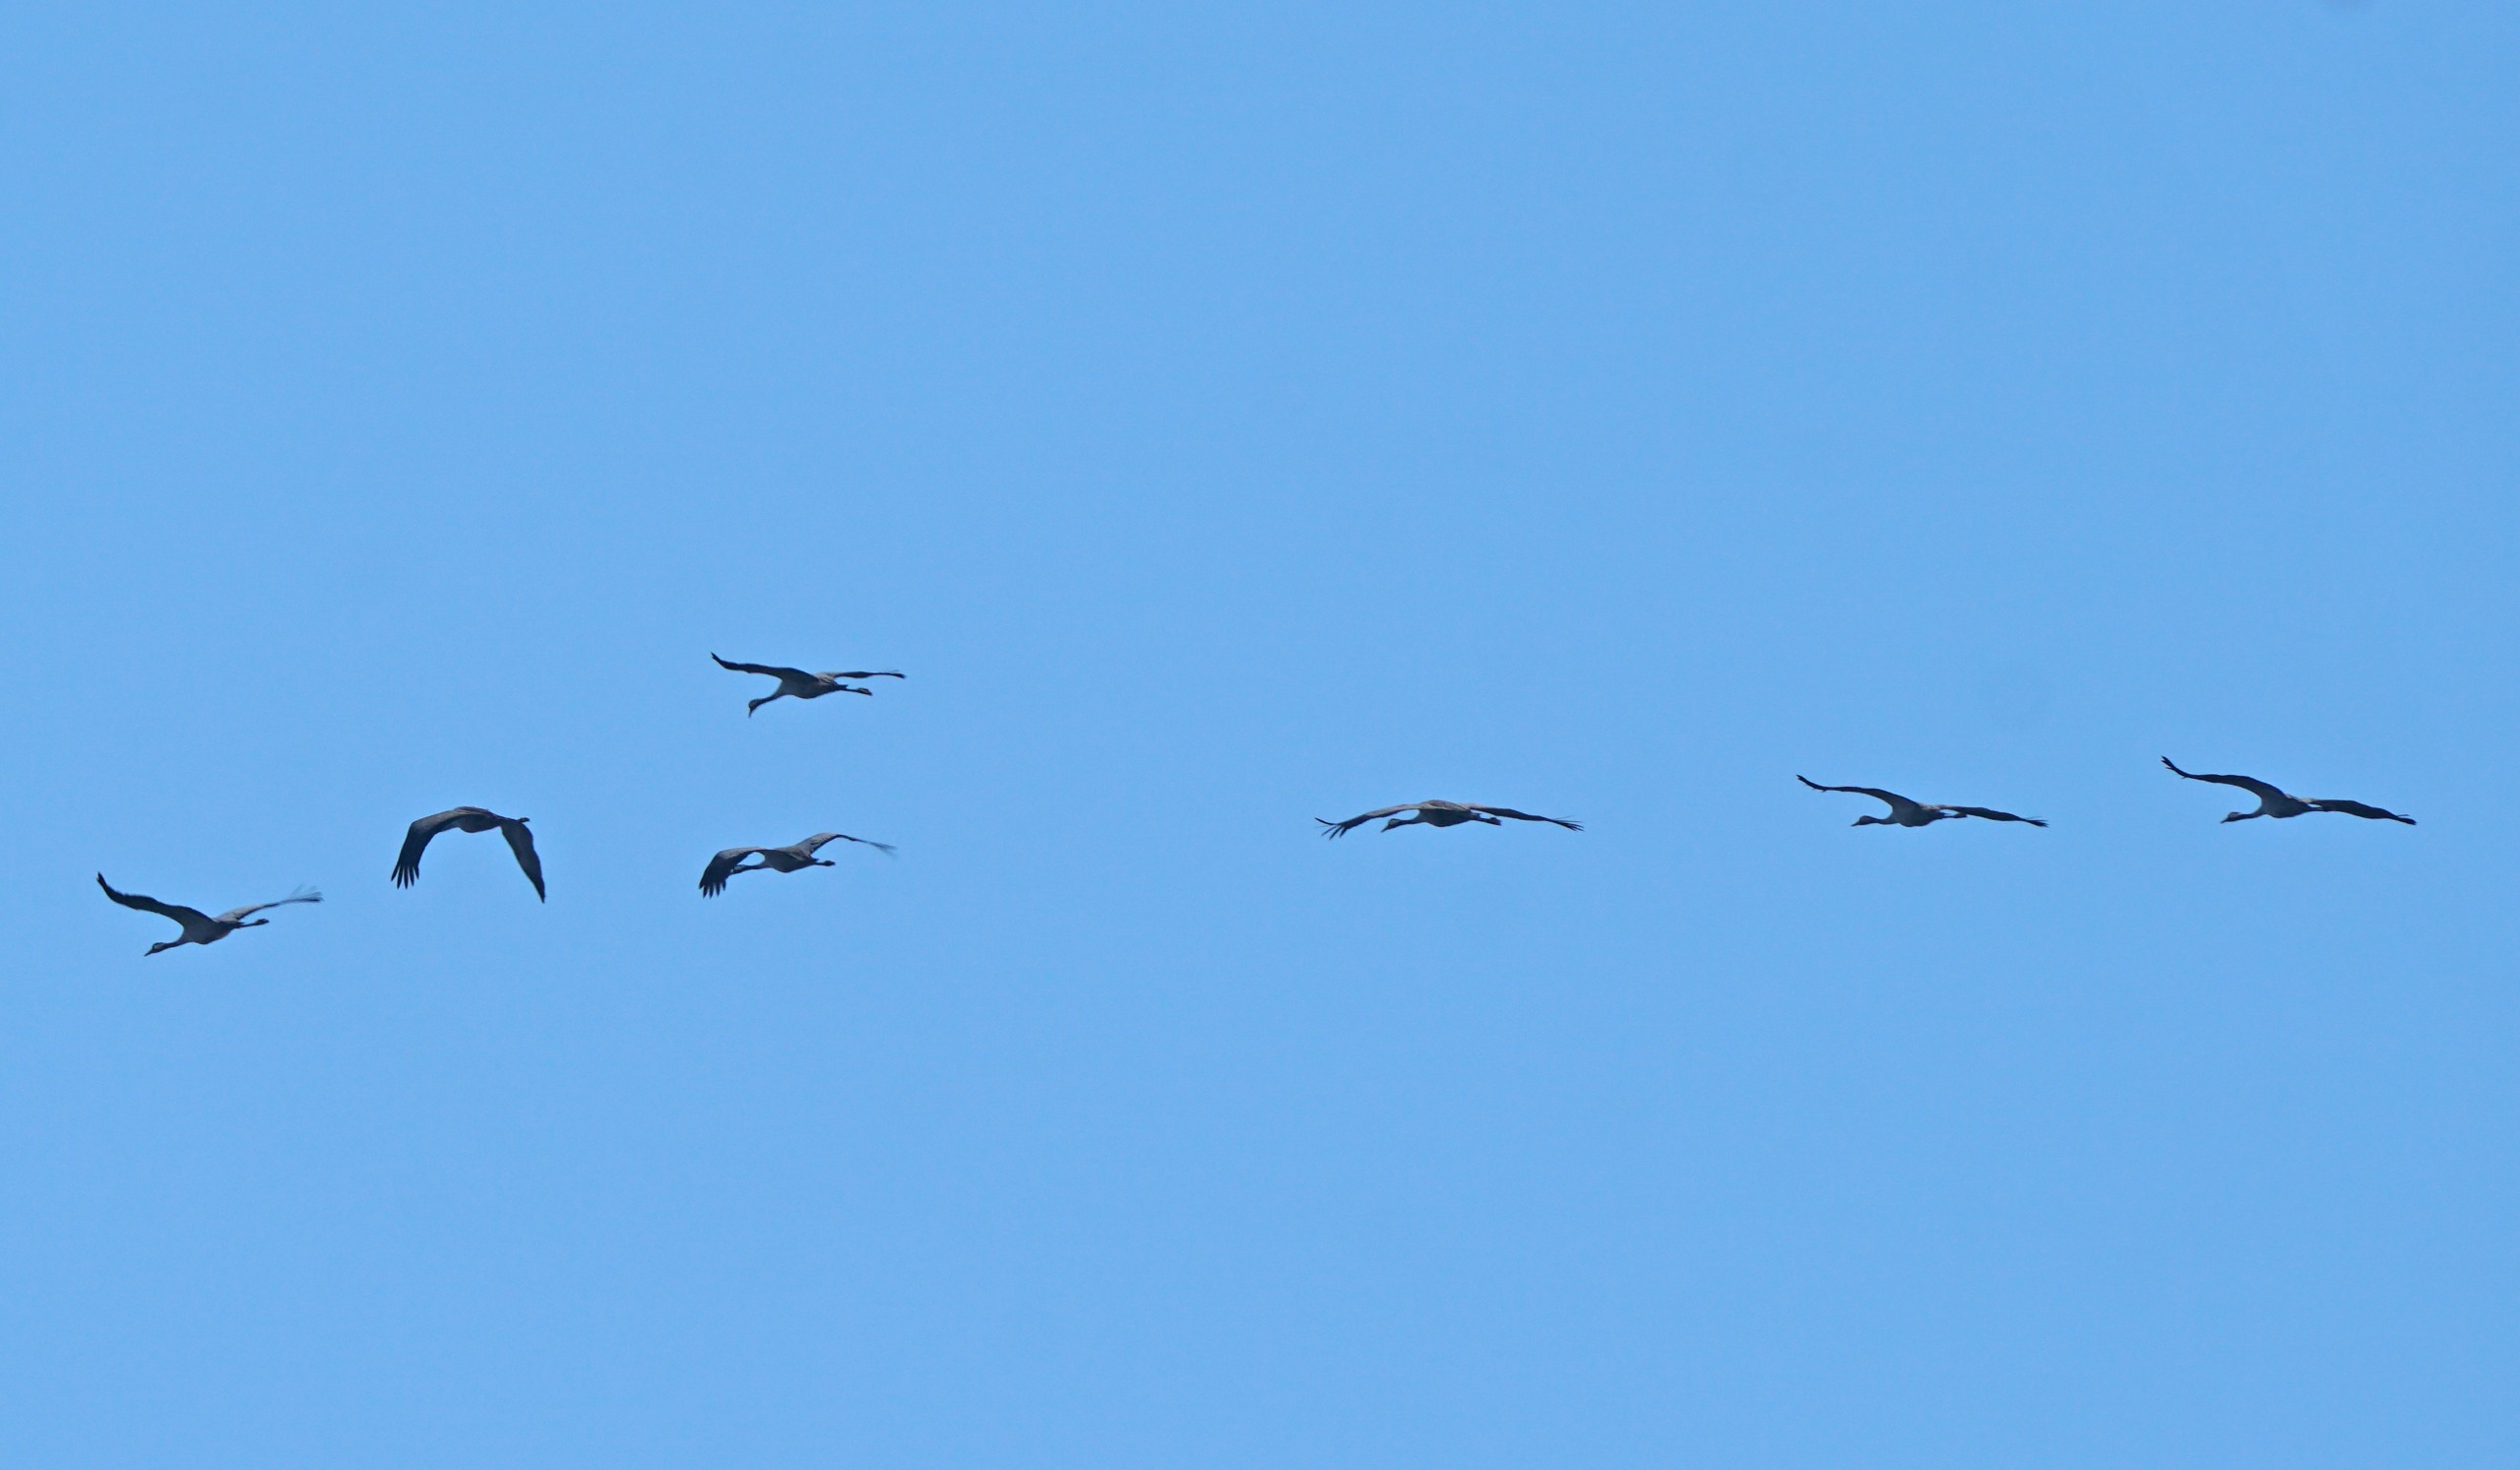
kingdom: Animalia
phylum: Chordata
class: Aves
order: Gruiformes
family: Gruidae
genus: Grus
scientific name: Grus grus
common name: Trane
